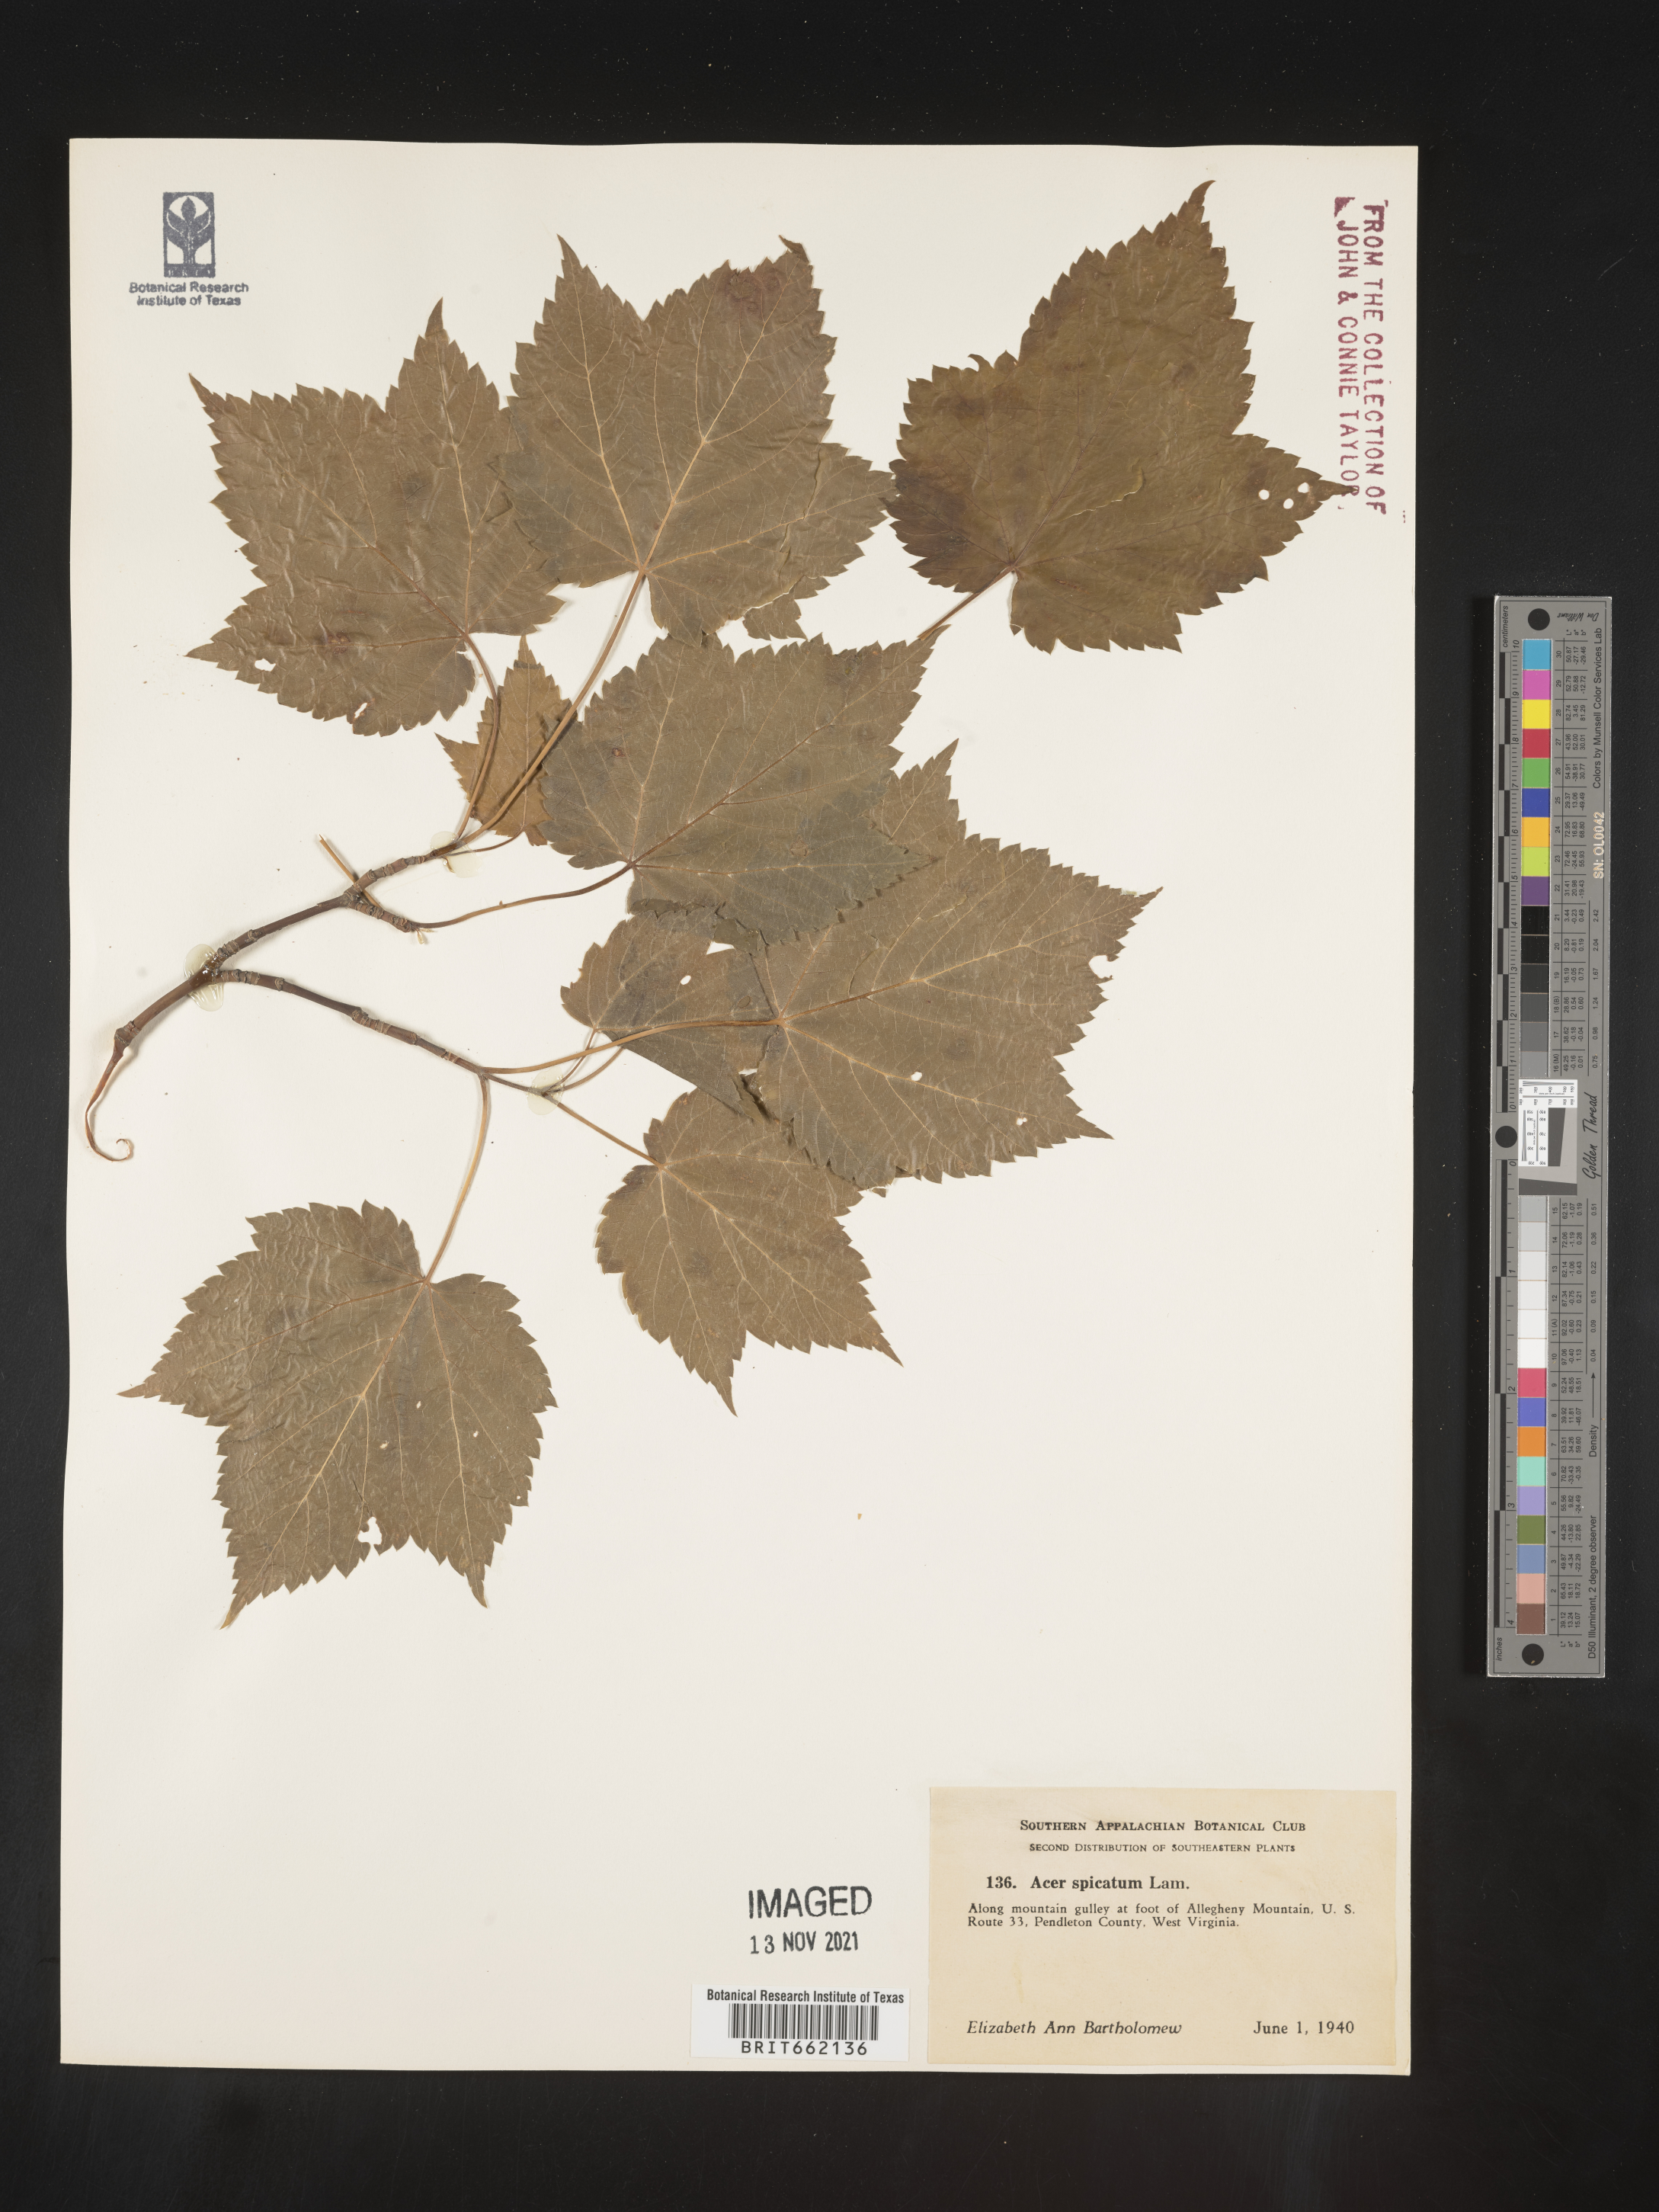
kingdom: Plantae
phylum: Tracheophyta
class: Magnoliopsida
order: Sapindales
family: Sapindaceae
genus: Acer
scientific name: Acer spicatum
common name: Mountain maple
